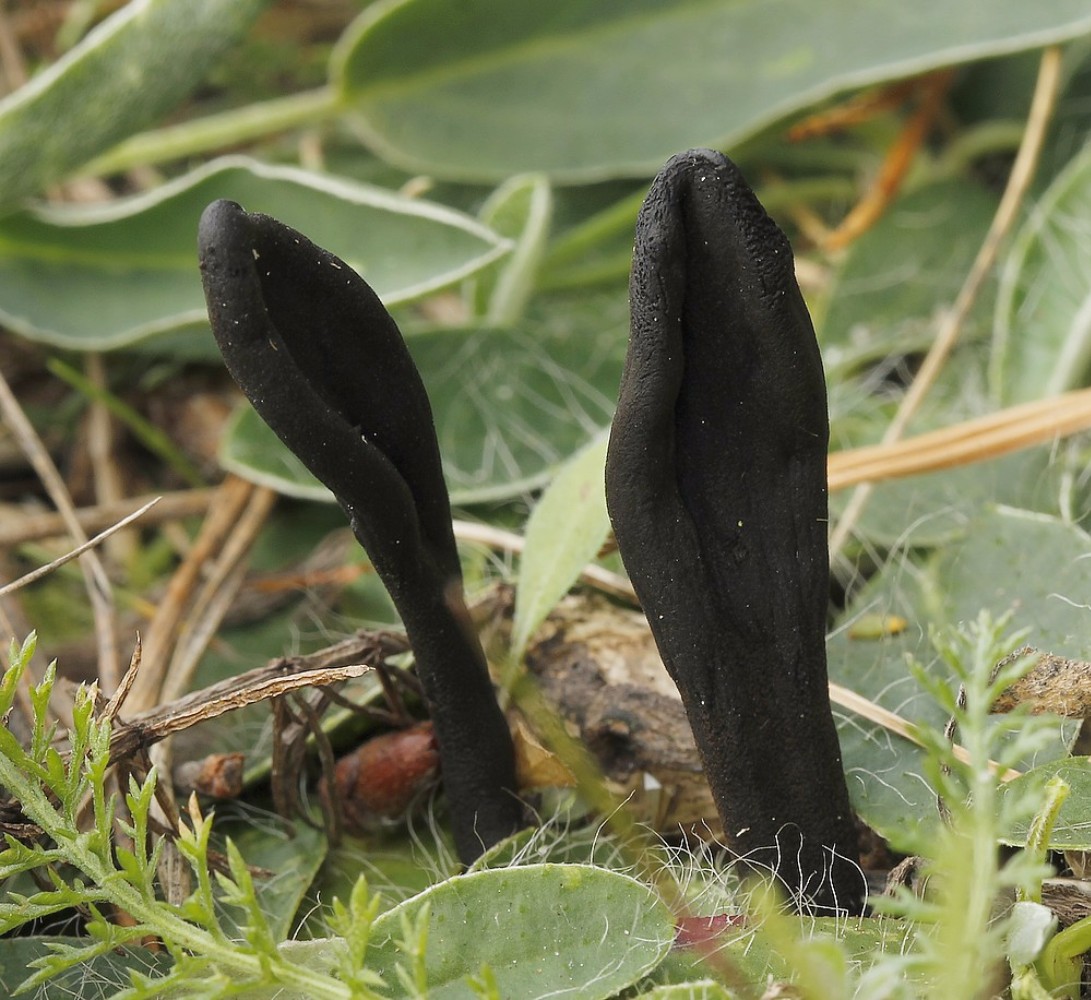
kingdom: Fungi
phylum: Ascomycota
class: Geoglossomycetes
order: Geoglossales
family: Geoglossaceae
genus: Geoglossum
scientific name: Geoglossum cookeianum
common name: bred jordtunge
